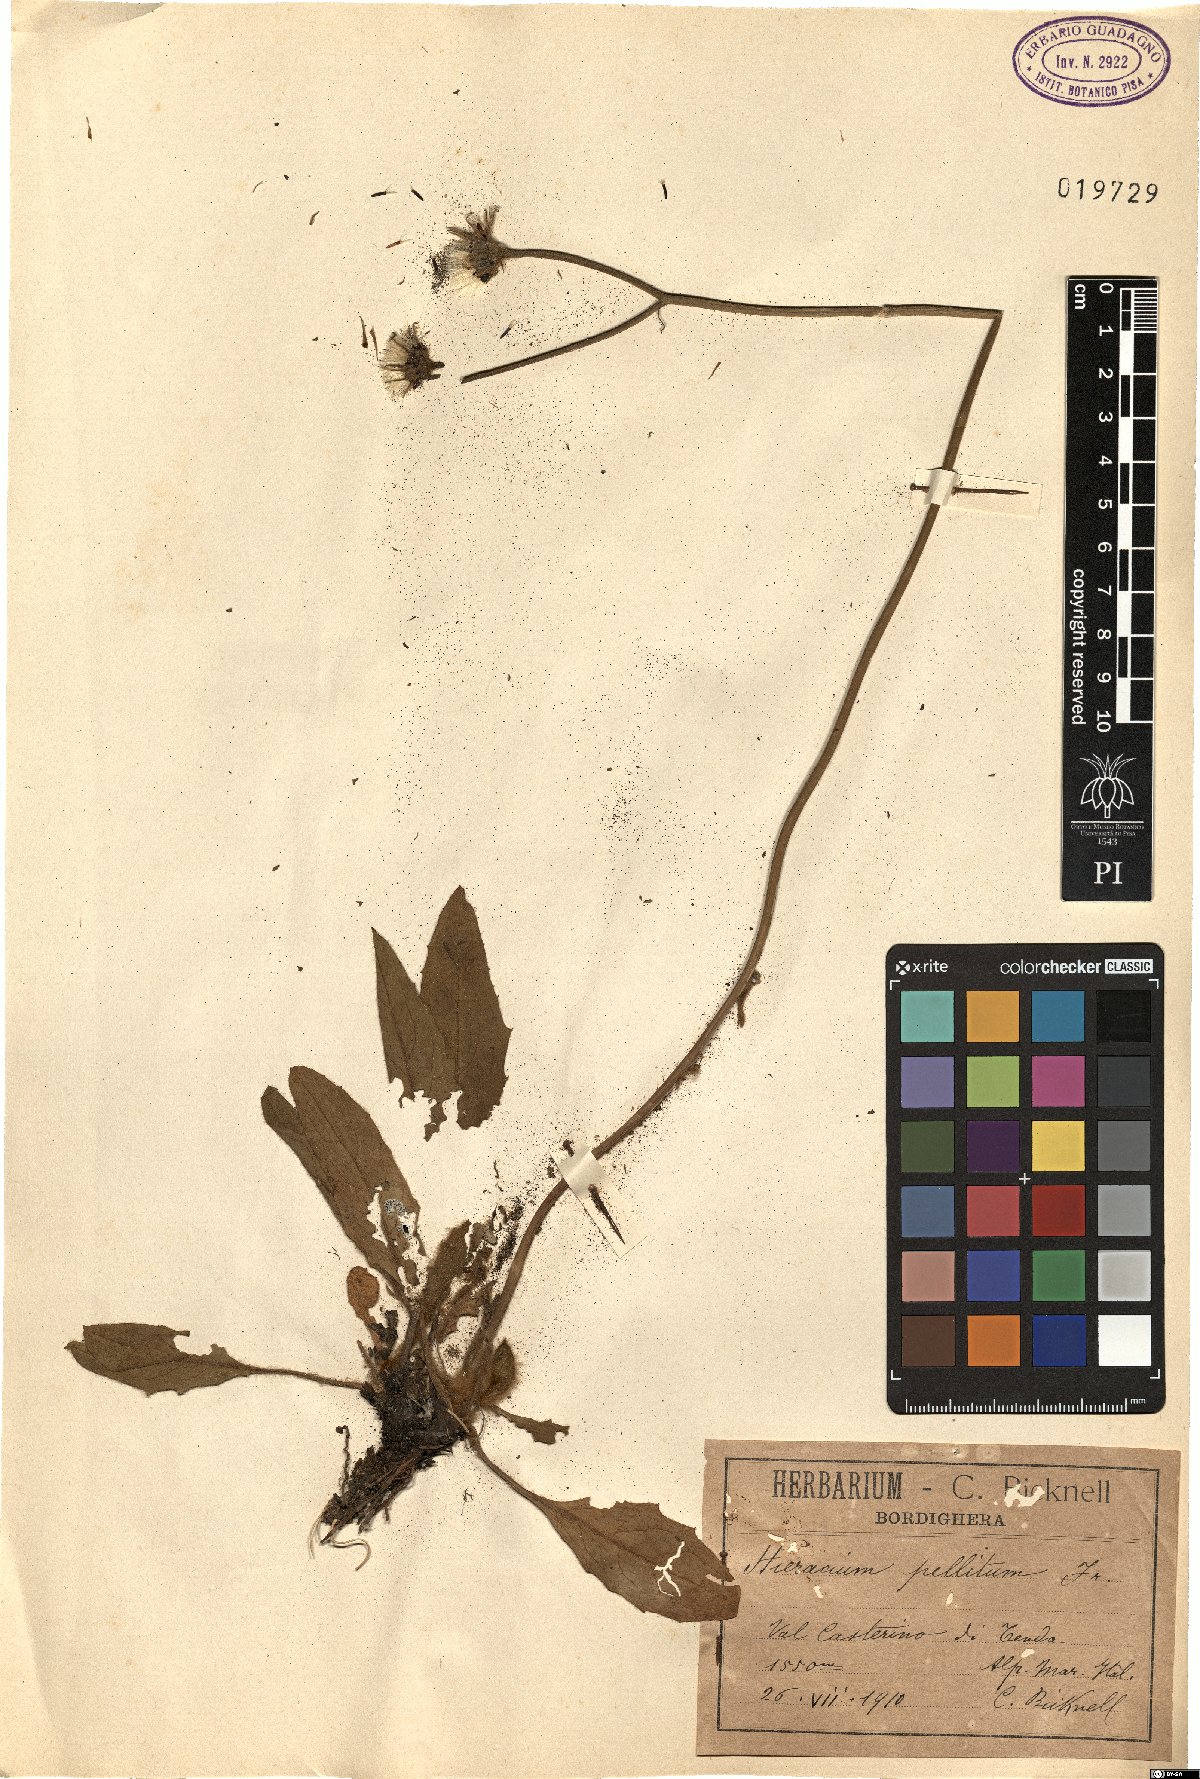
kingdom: Plantae
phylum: Tracheophyta
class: Magnoliopsida
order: Asterales
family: Asteraceae
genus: Hieracium
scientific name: Hieracium pellitum
